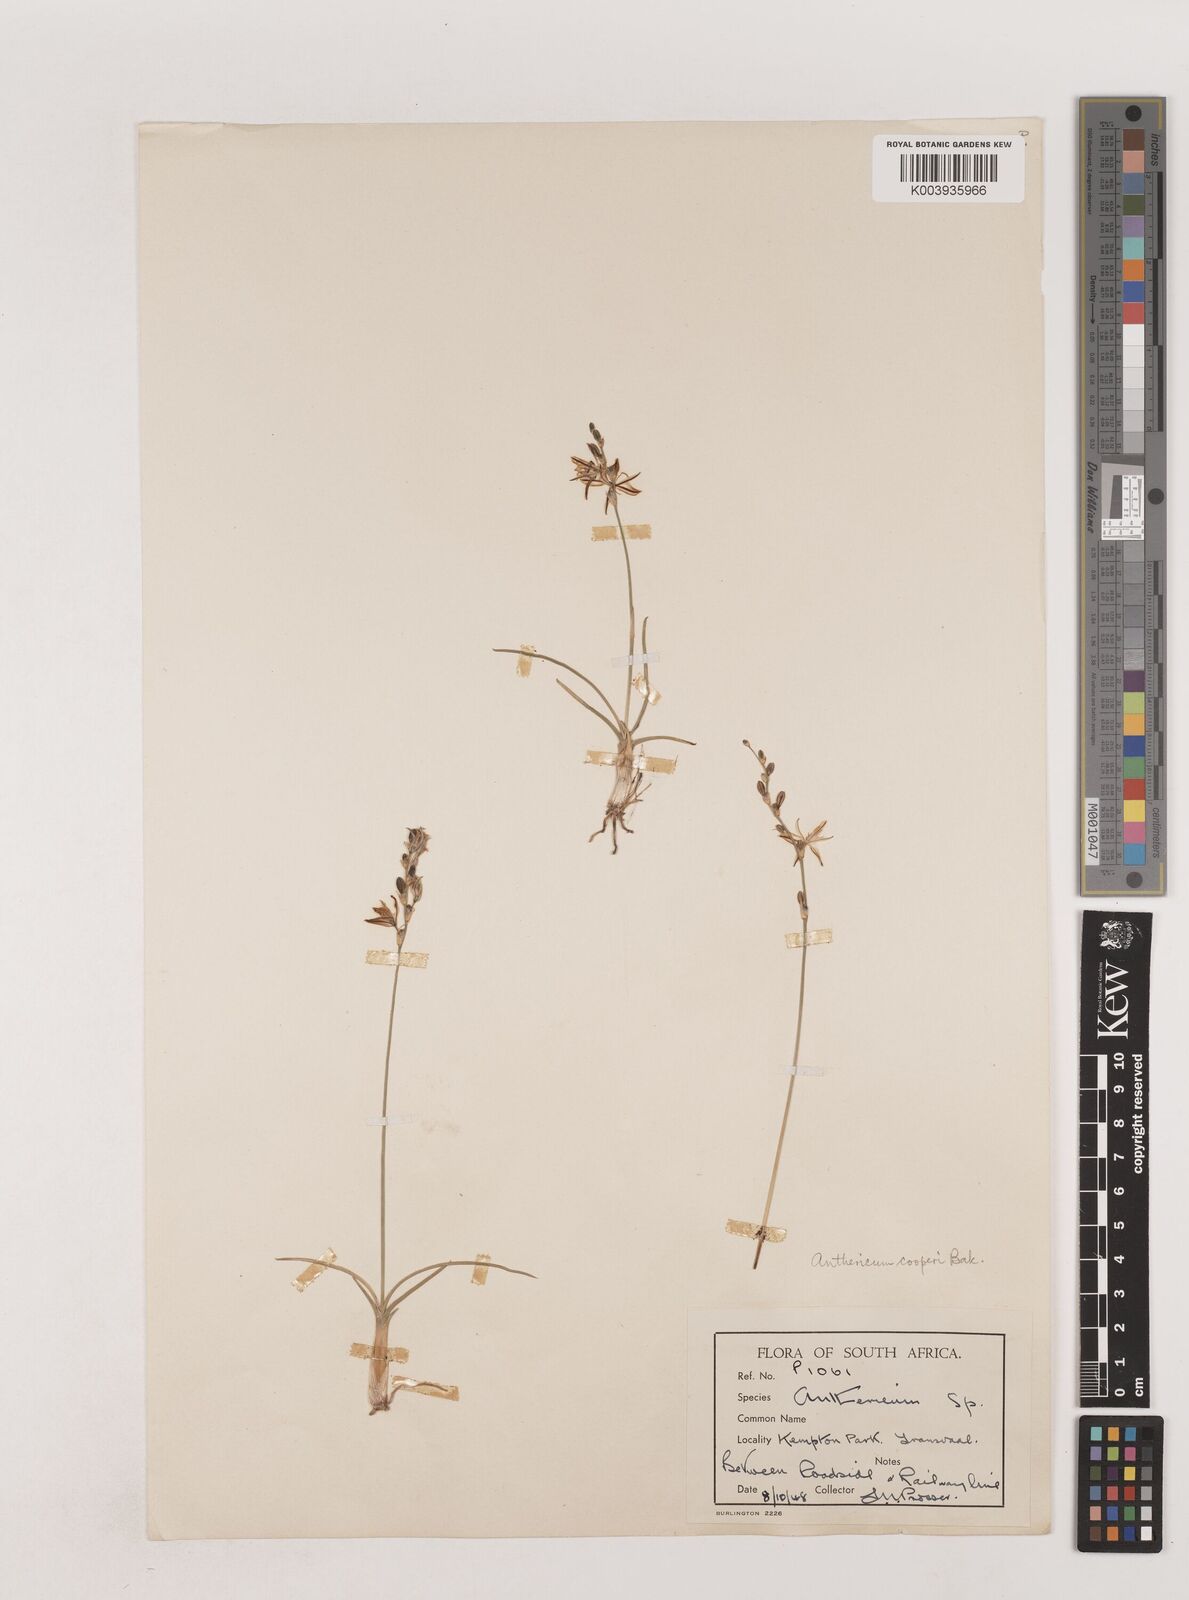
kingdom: Plantae
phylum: Tracheophyta
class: Liliopsida
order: Asparagales
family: Asparagaceae
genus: Chlorophytum
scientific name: Chlorophytum cooperi
